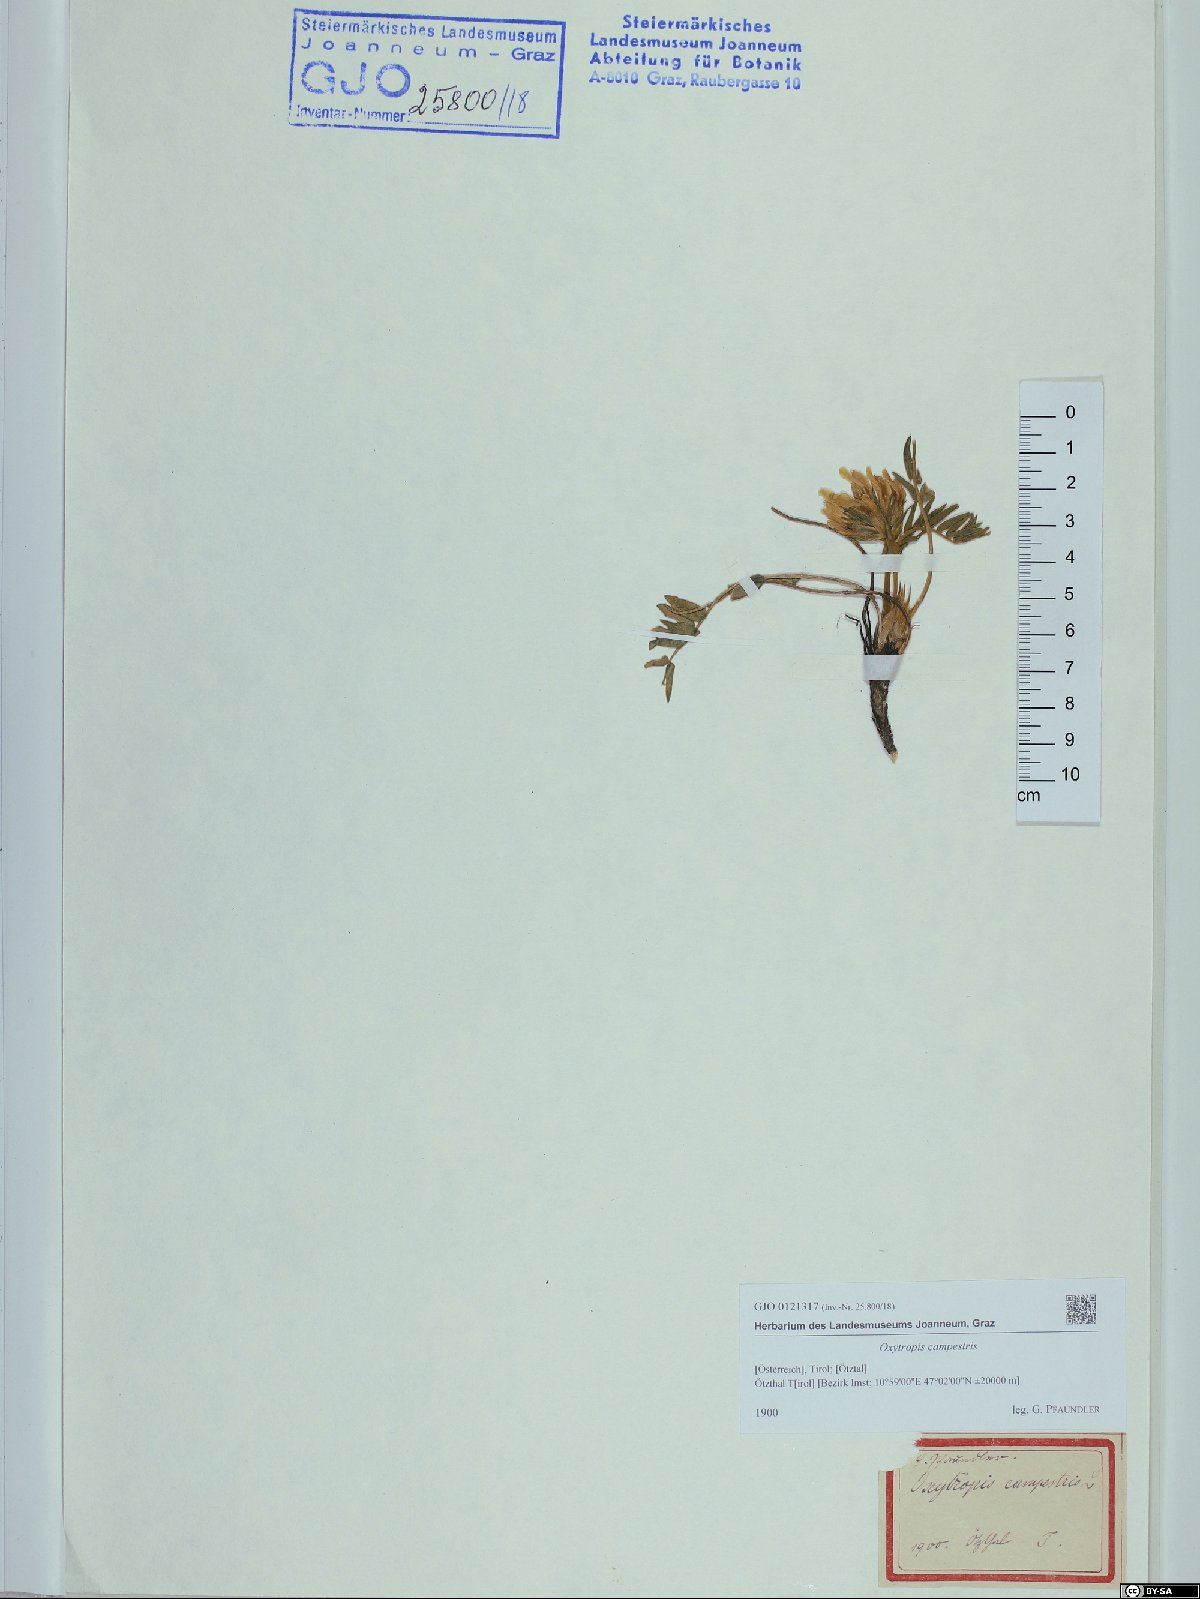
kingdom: Plantae
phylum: Tracheophyta
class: Magnoliopsida
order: Fabales
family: Fabaceae
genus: Oxytropis
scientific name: Oxytropis campestris
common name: Field locoweed
